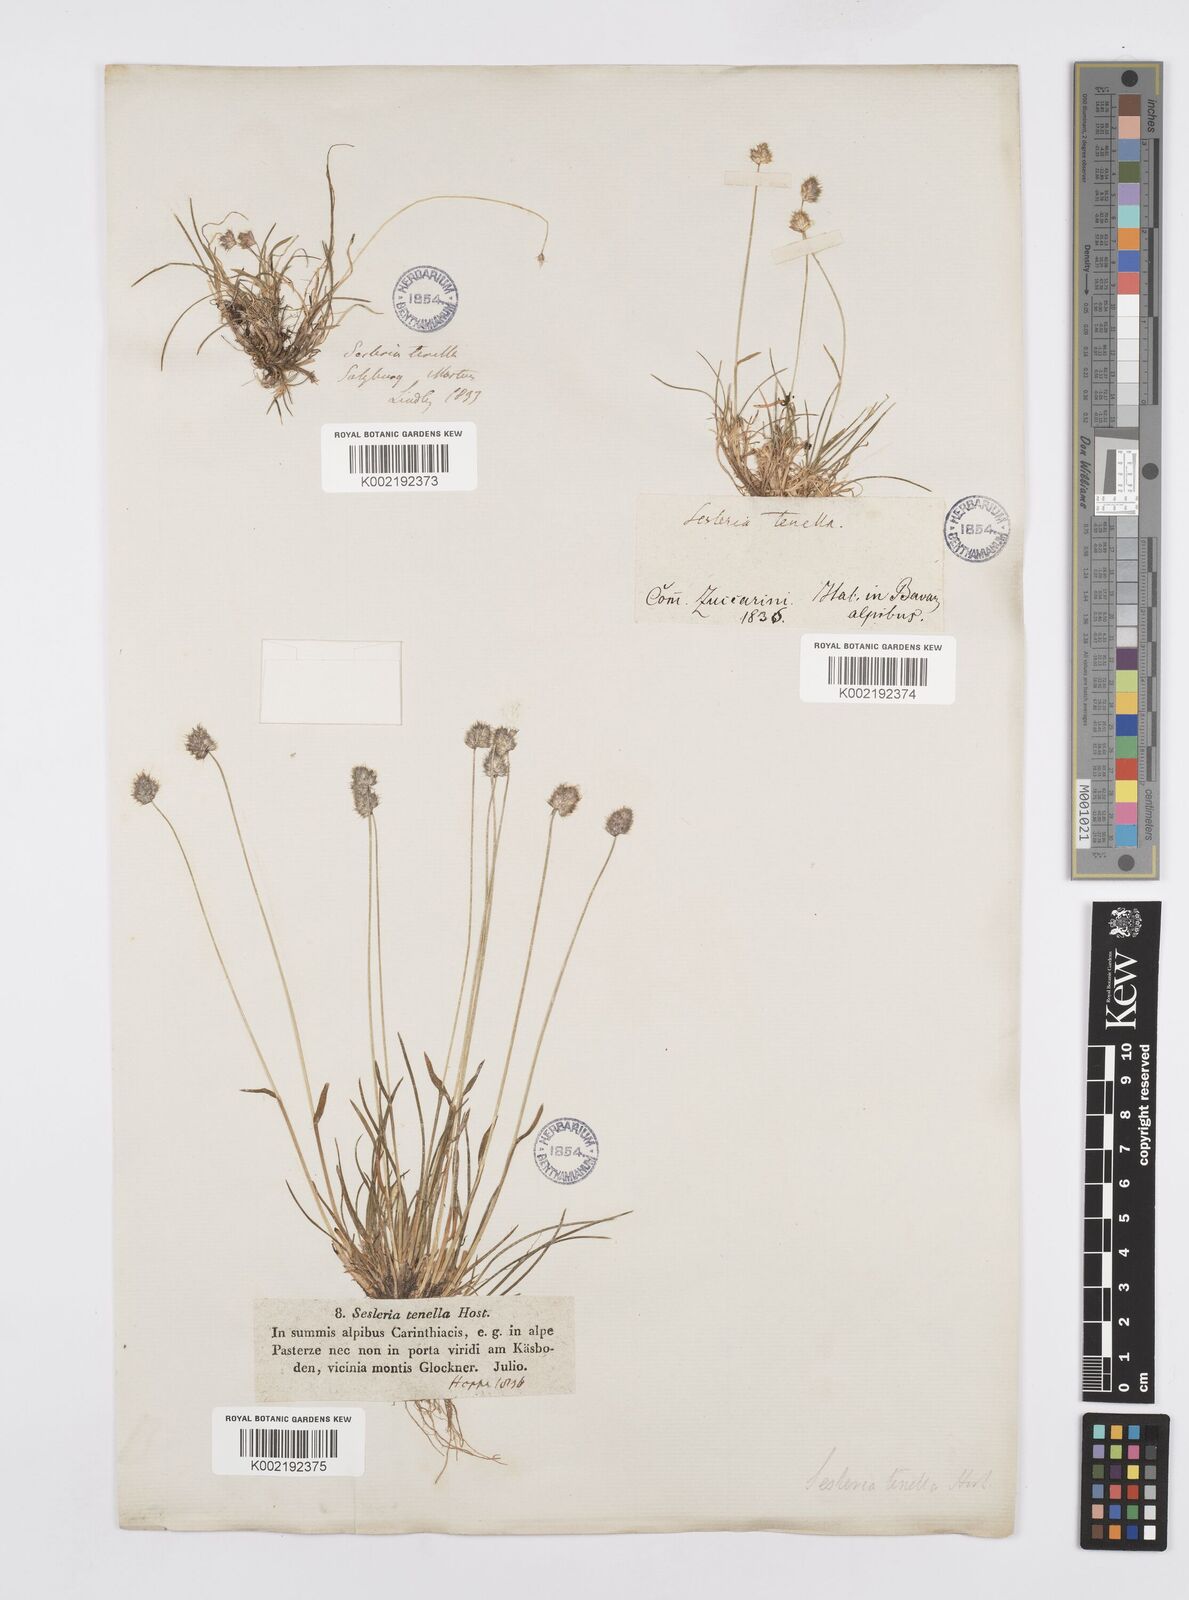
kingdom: Plantae
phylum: Tracheophyta
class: Liliopsida
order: Poales
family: Poaceae
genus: Psilathera
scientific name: Psilathera ovata
